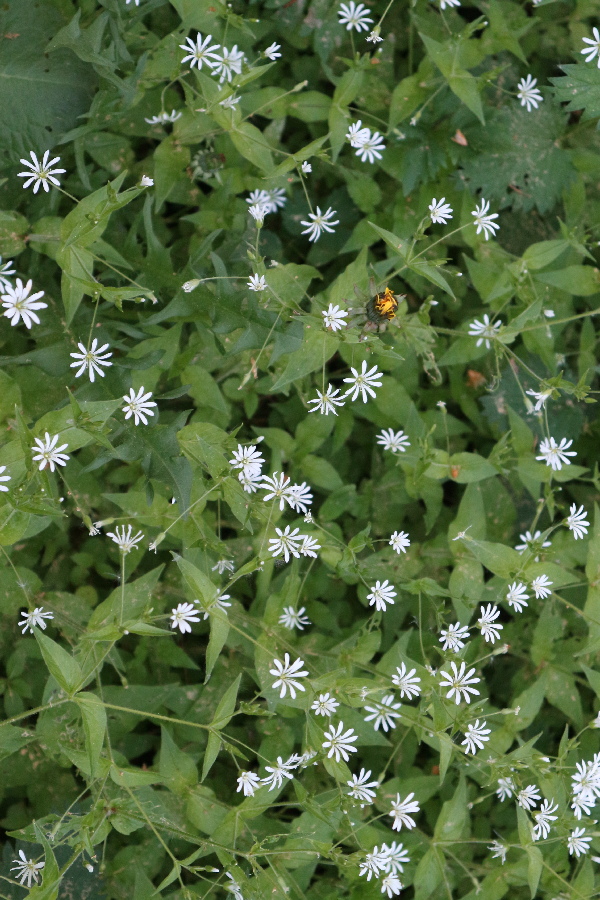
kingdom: Plantae
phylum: Tracheophyta
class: Magnoliopsida
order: Caryophyllales
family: Caryophyllaceae
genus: Stellaria
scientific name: Stellaria nemorum
